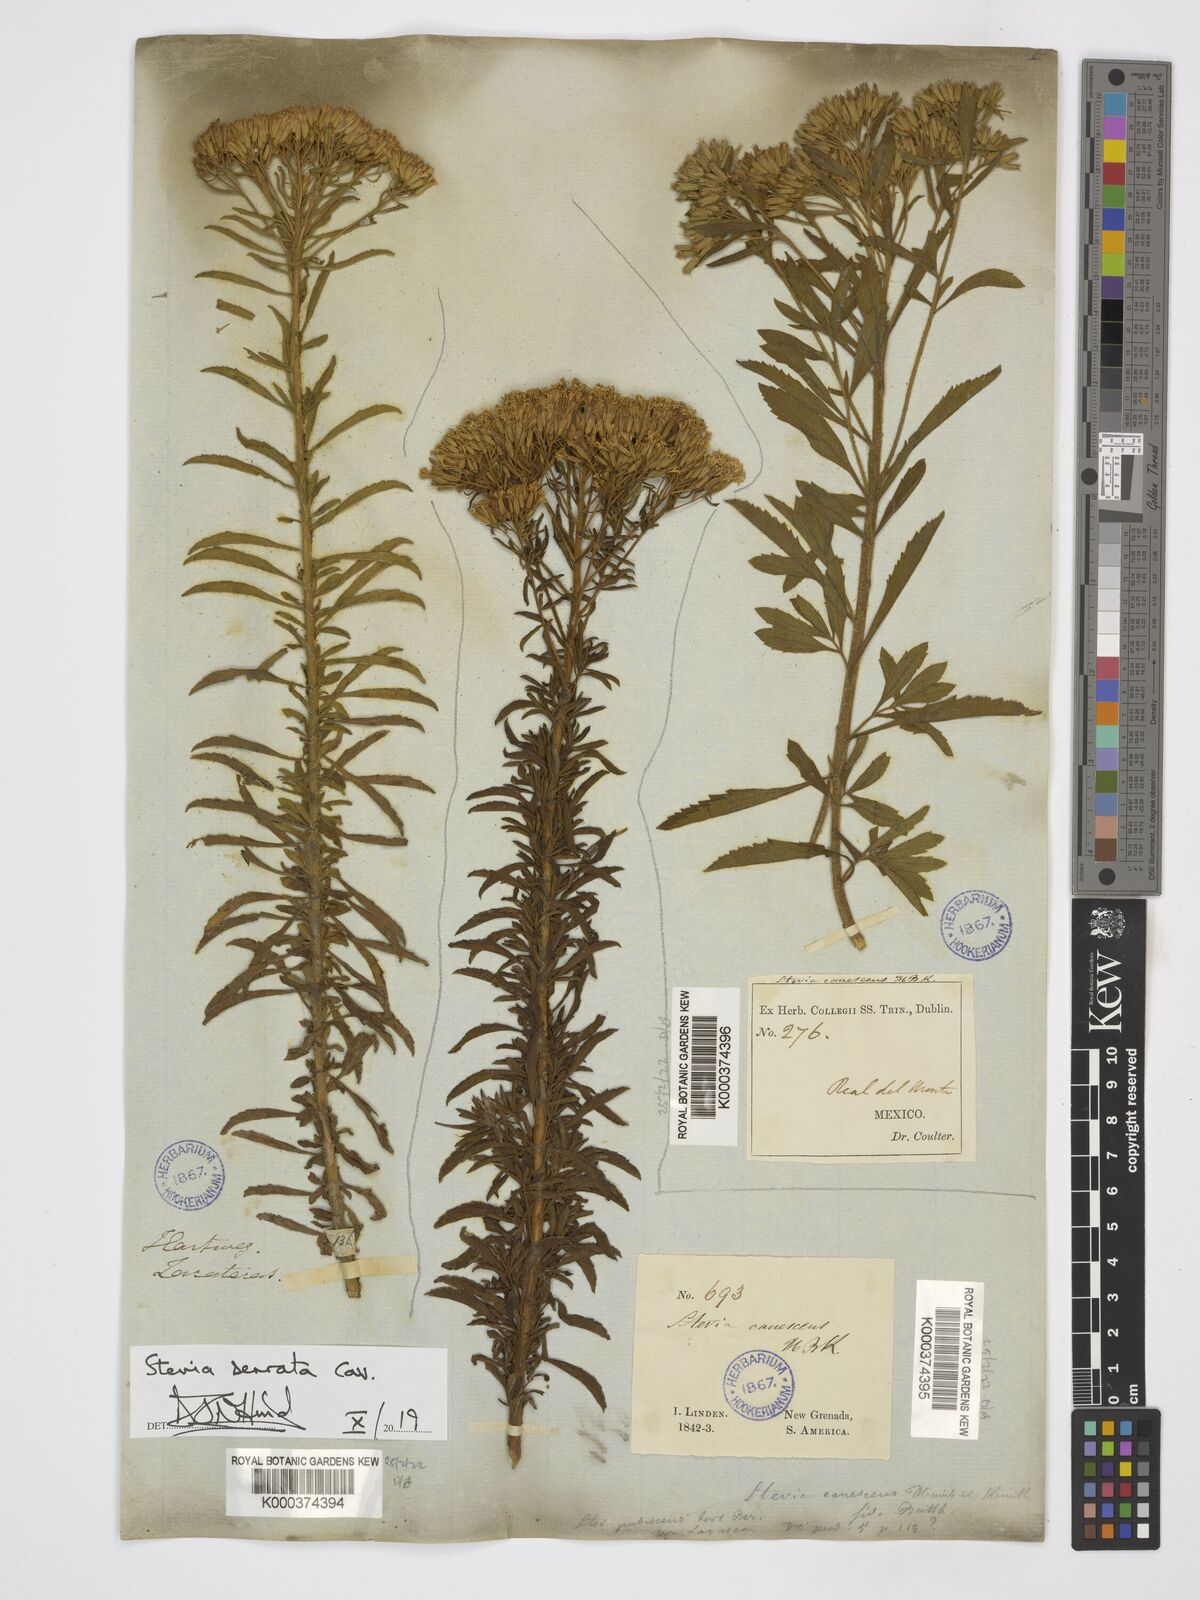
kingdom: Plantae
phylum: Tracheophyta
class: Magnoliopsida
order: Asterales
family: Asteraceae
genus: Stevia
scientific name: Stevia serrata
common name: Sawtooth candyleaf
